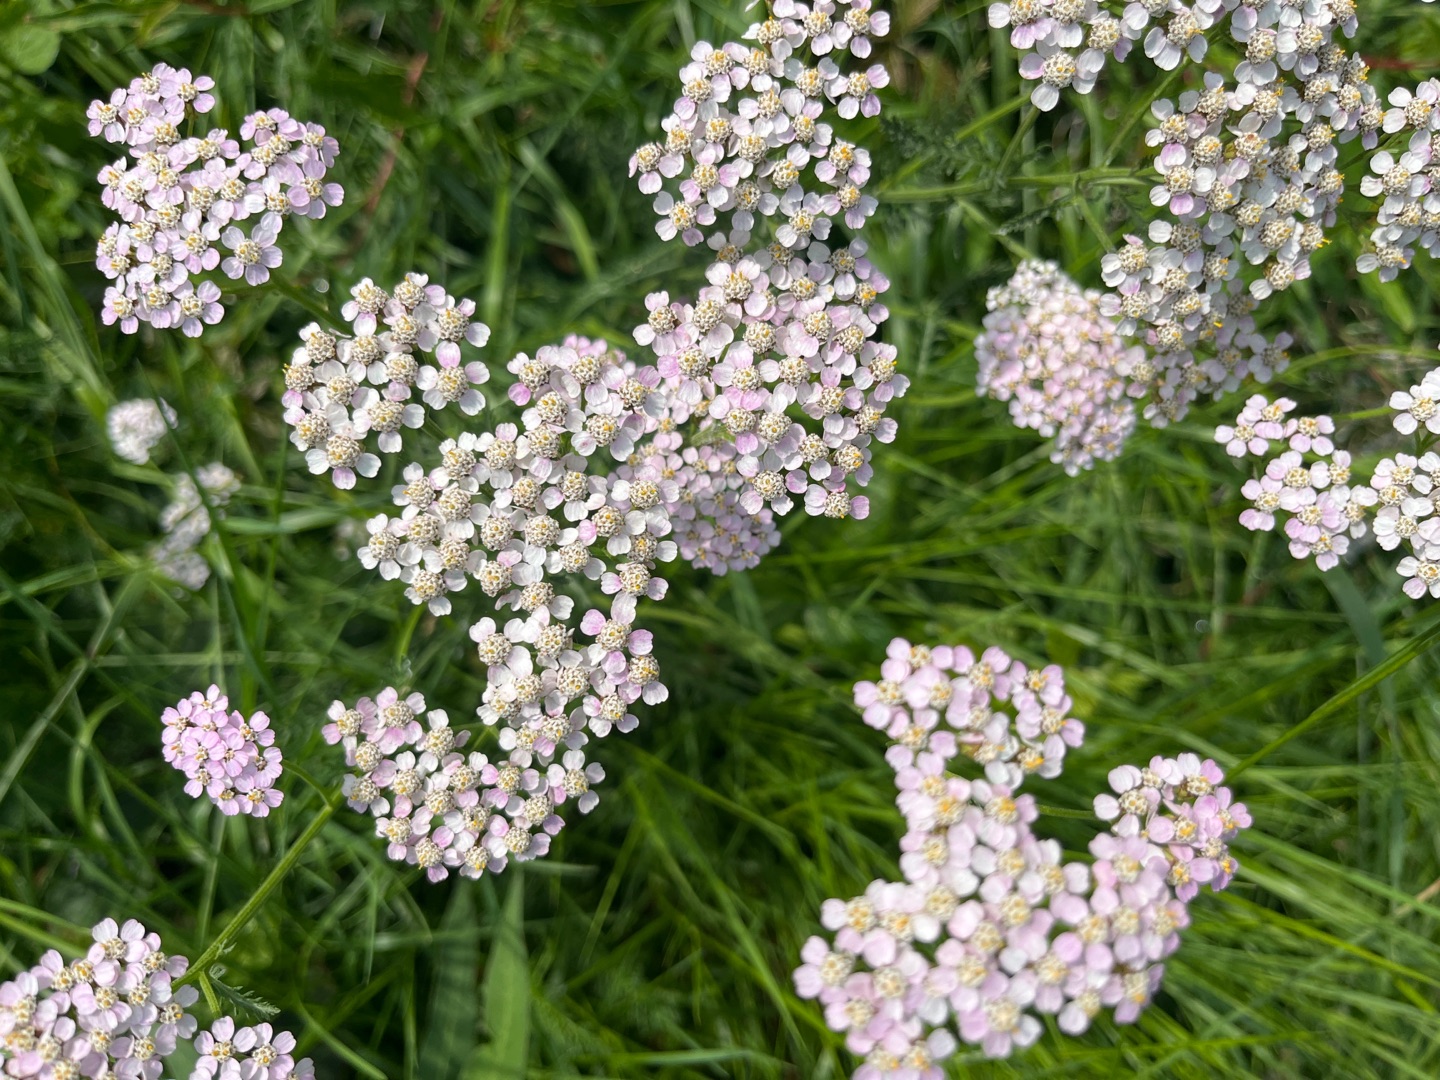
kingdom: Plantae
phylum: Tracheophyta
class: Magnoliopsida
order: Asterales
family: Asteraceae
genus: Achillea
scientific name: Achillea millefolium
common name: Almindelig røllike
